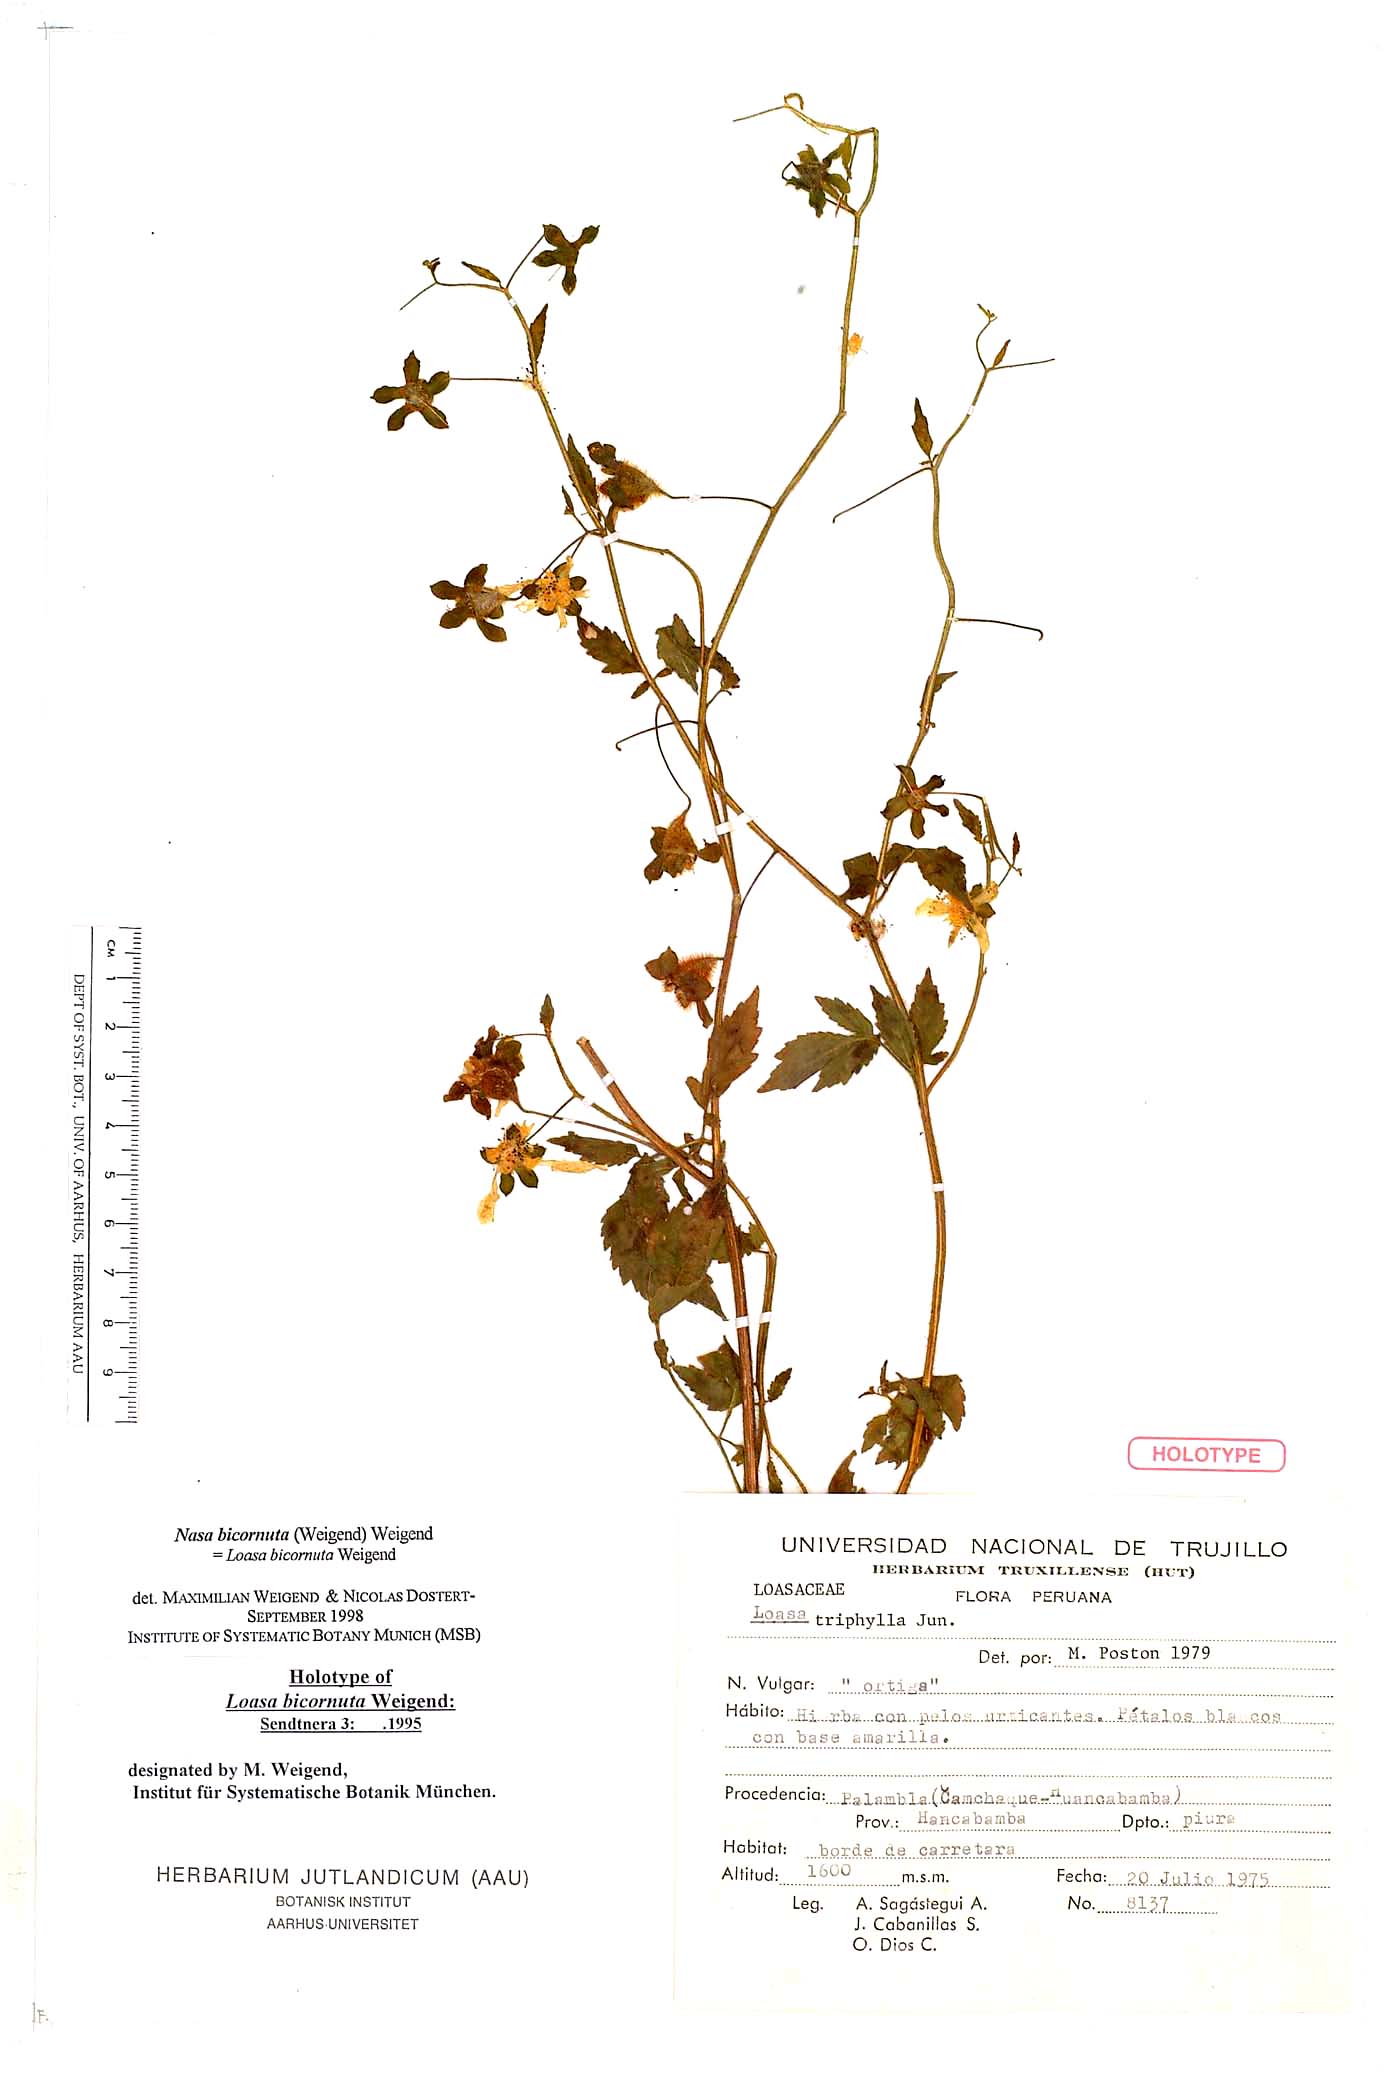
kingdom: Plantae
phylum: Tracheophyta
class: Magnoliopsida
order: Cornales
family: Loasaceae
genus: Nasa
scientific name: Nasa bicornuta
